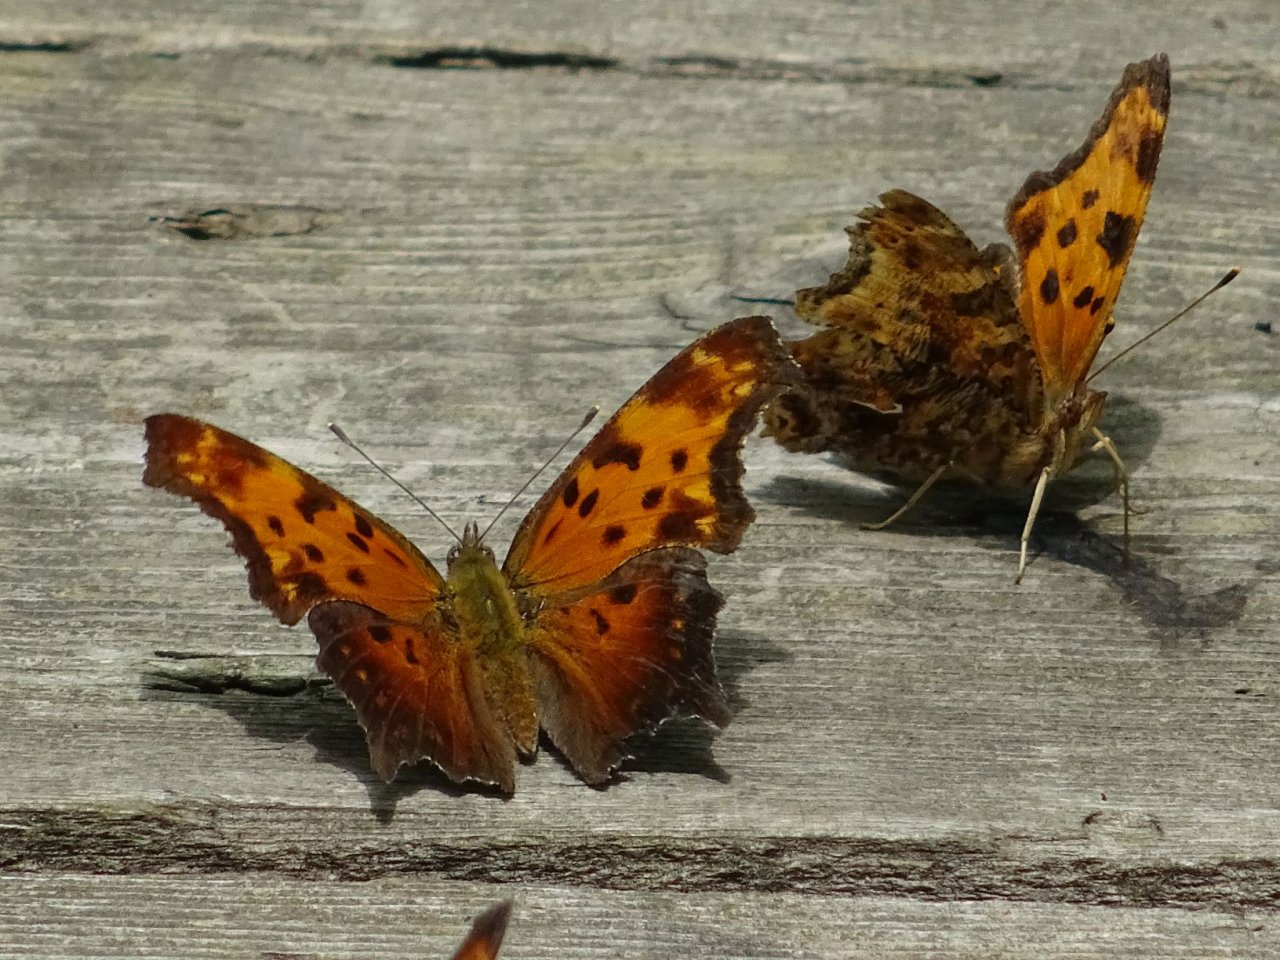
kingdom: Animalia
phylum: Arthropoda
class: Insecta
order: Lepidoptera
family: Nymphalidae
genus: Polygonia
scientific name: Polygonia progne
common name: Gray Comma
